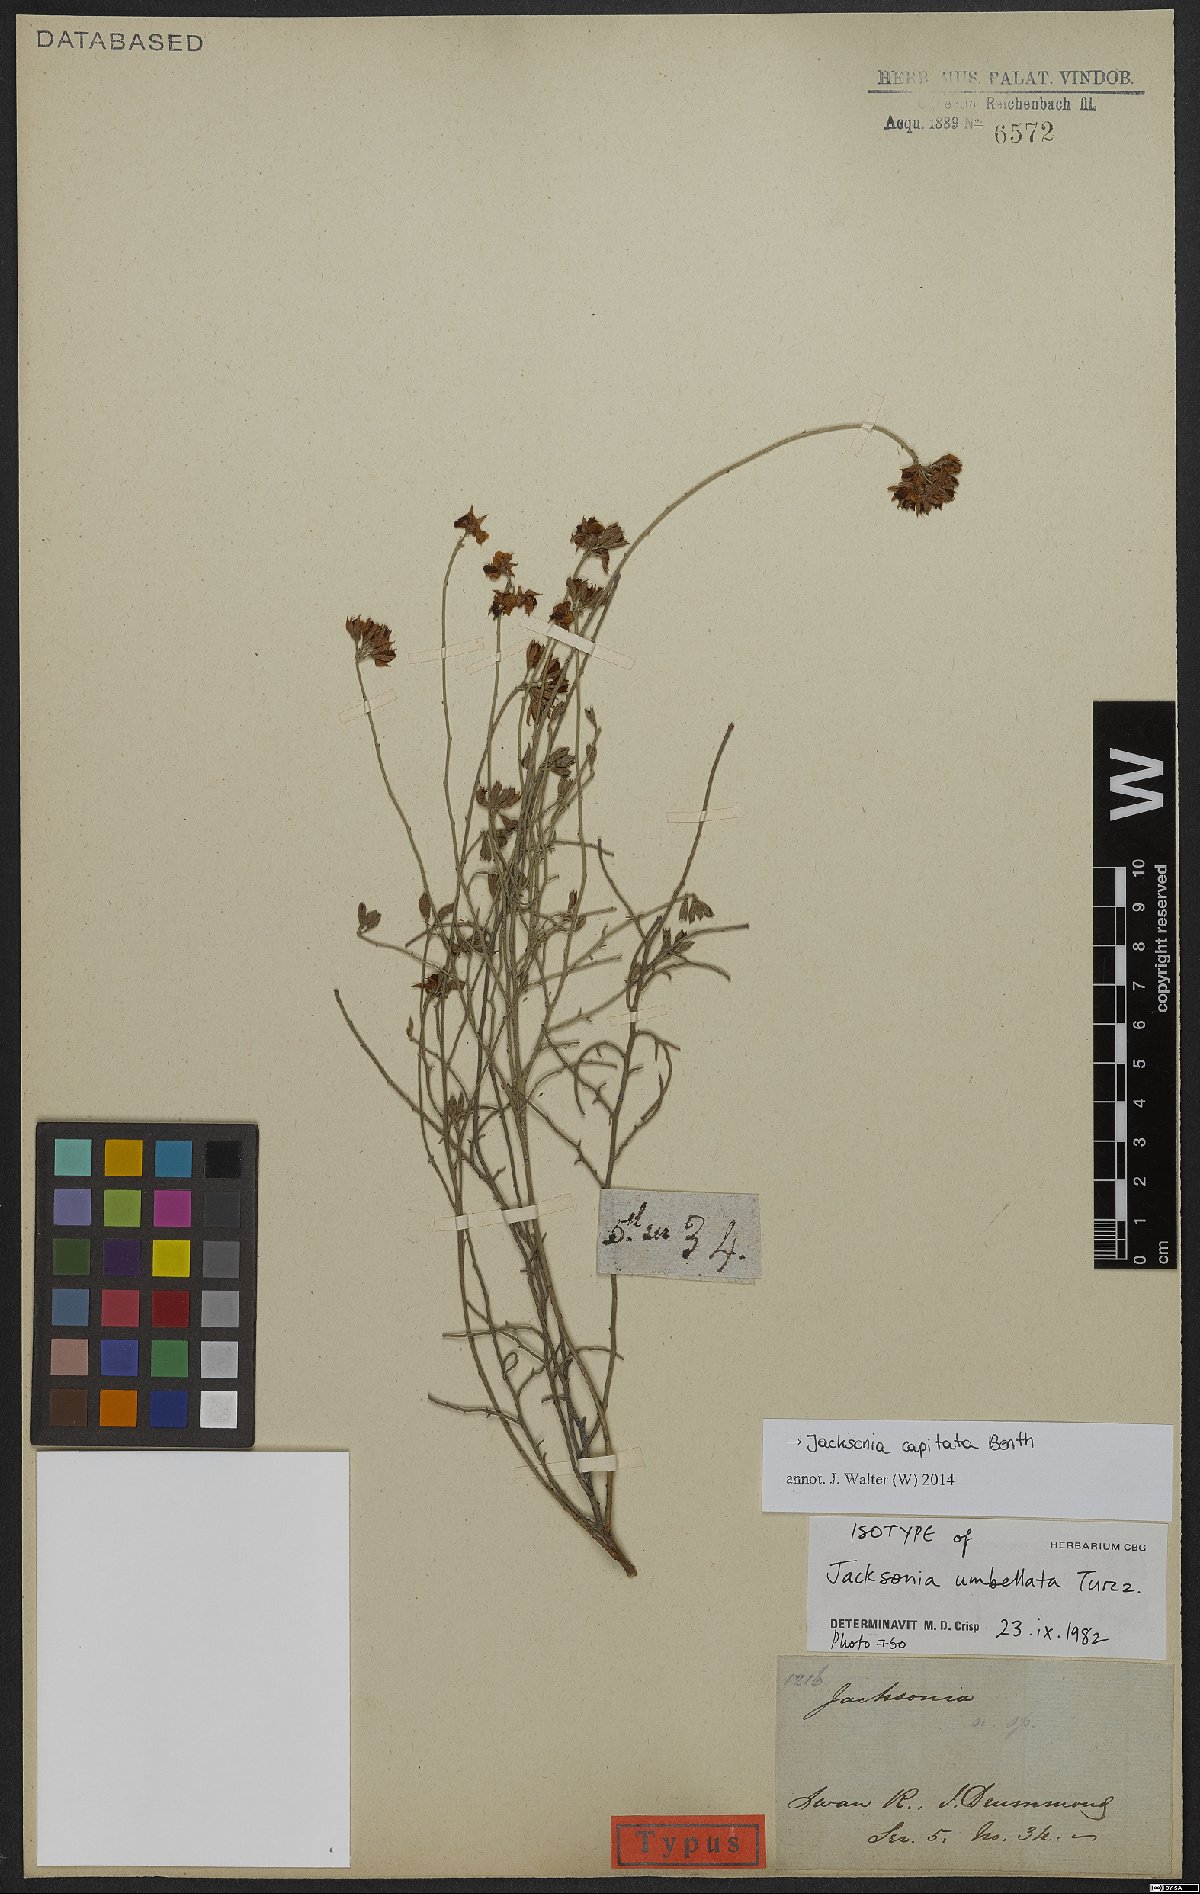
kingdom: Plantae
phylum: Tracheophyta
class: Magnoliopsida
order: Fabales
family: Fabaceae
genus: Jacksonia
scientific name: Jacksonia capitata
